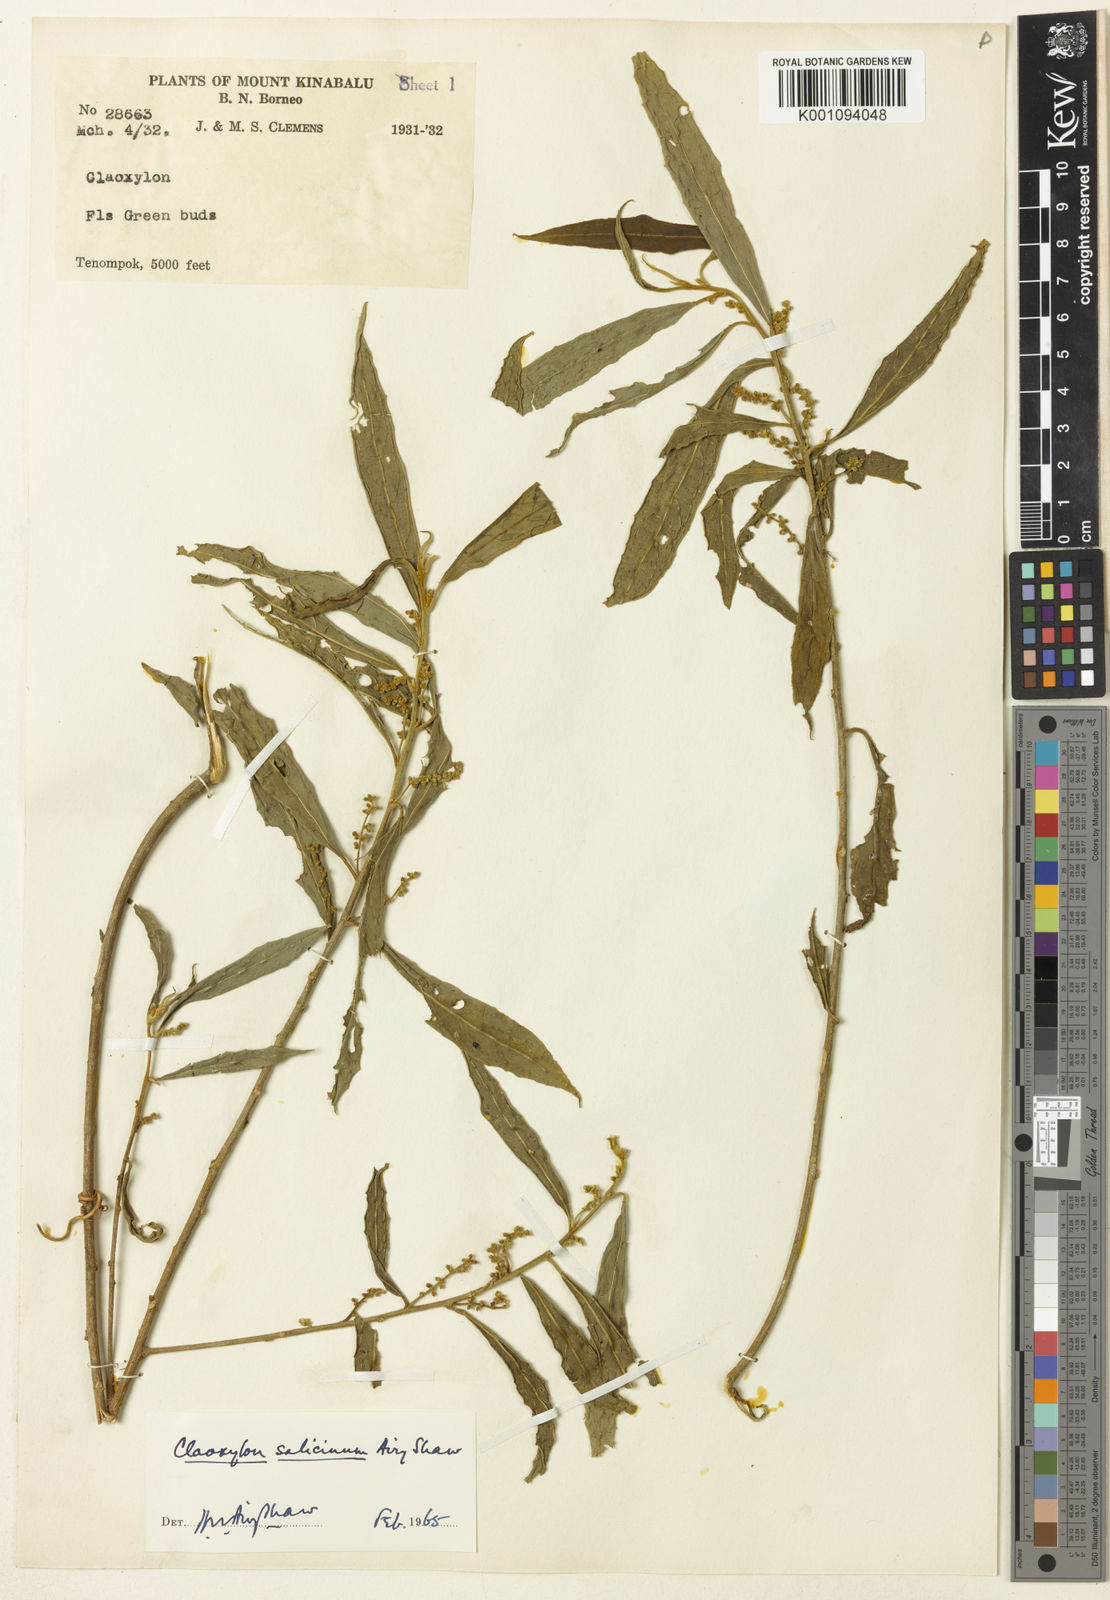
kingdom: Plantae
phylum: Tracheophyta
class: Magnoliopsida
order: Malpighiales
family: Euphorbiaceae
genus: Claoxylon
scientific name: Claoxylon salicinum
